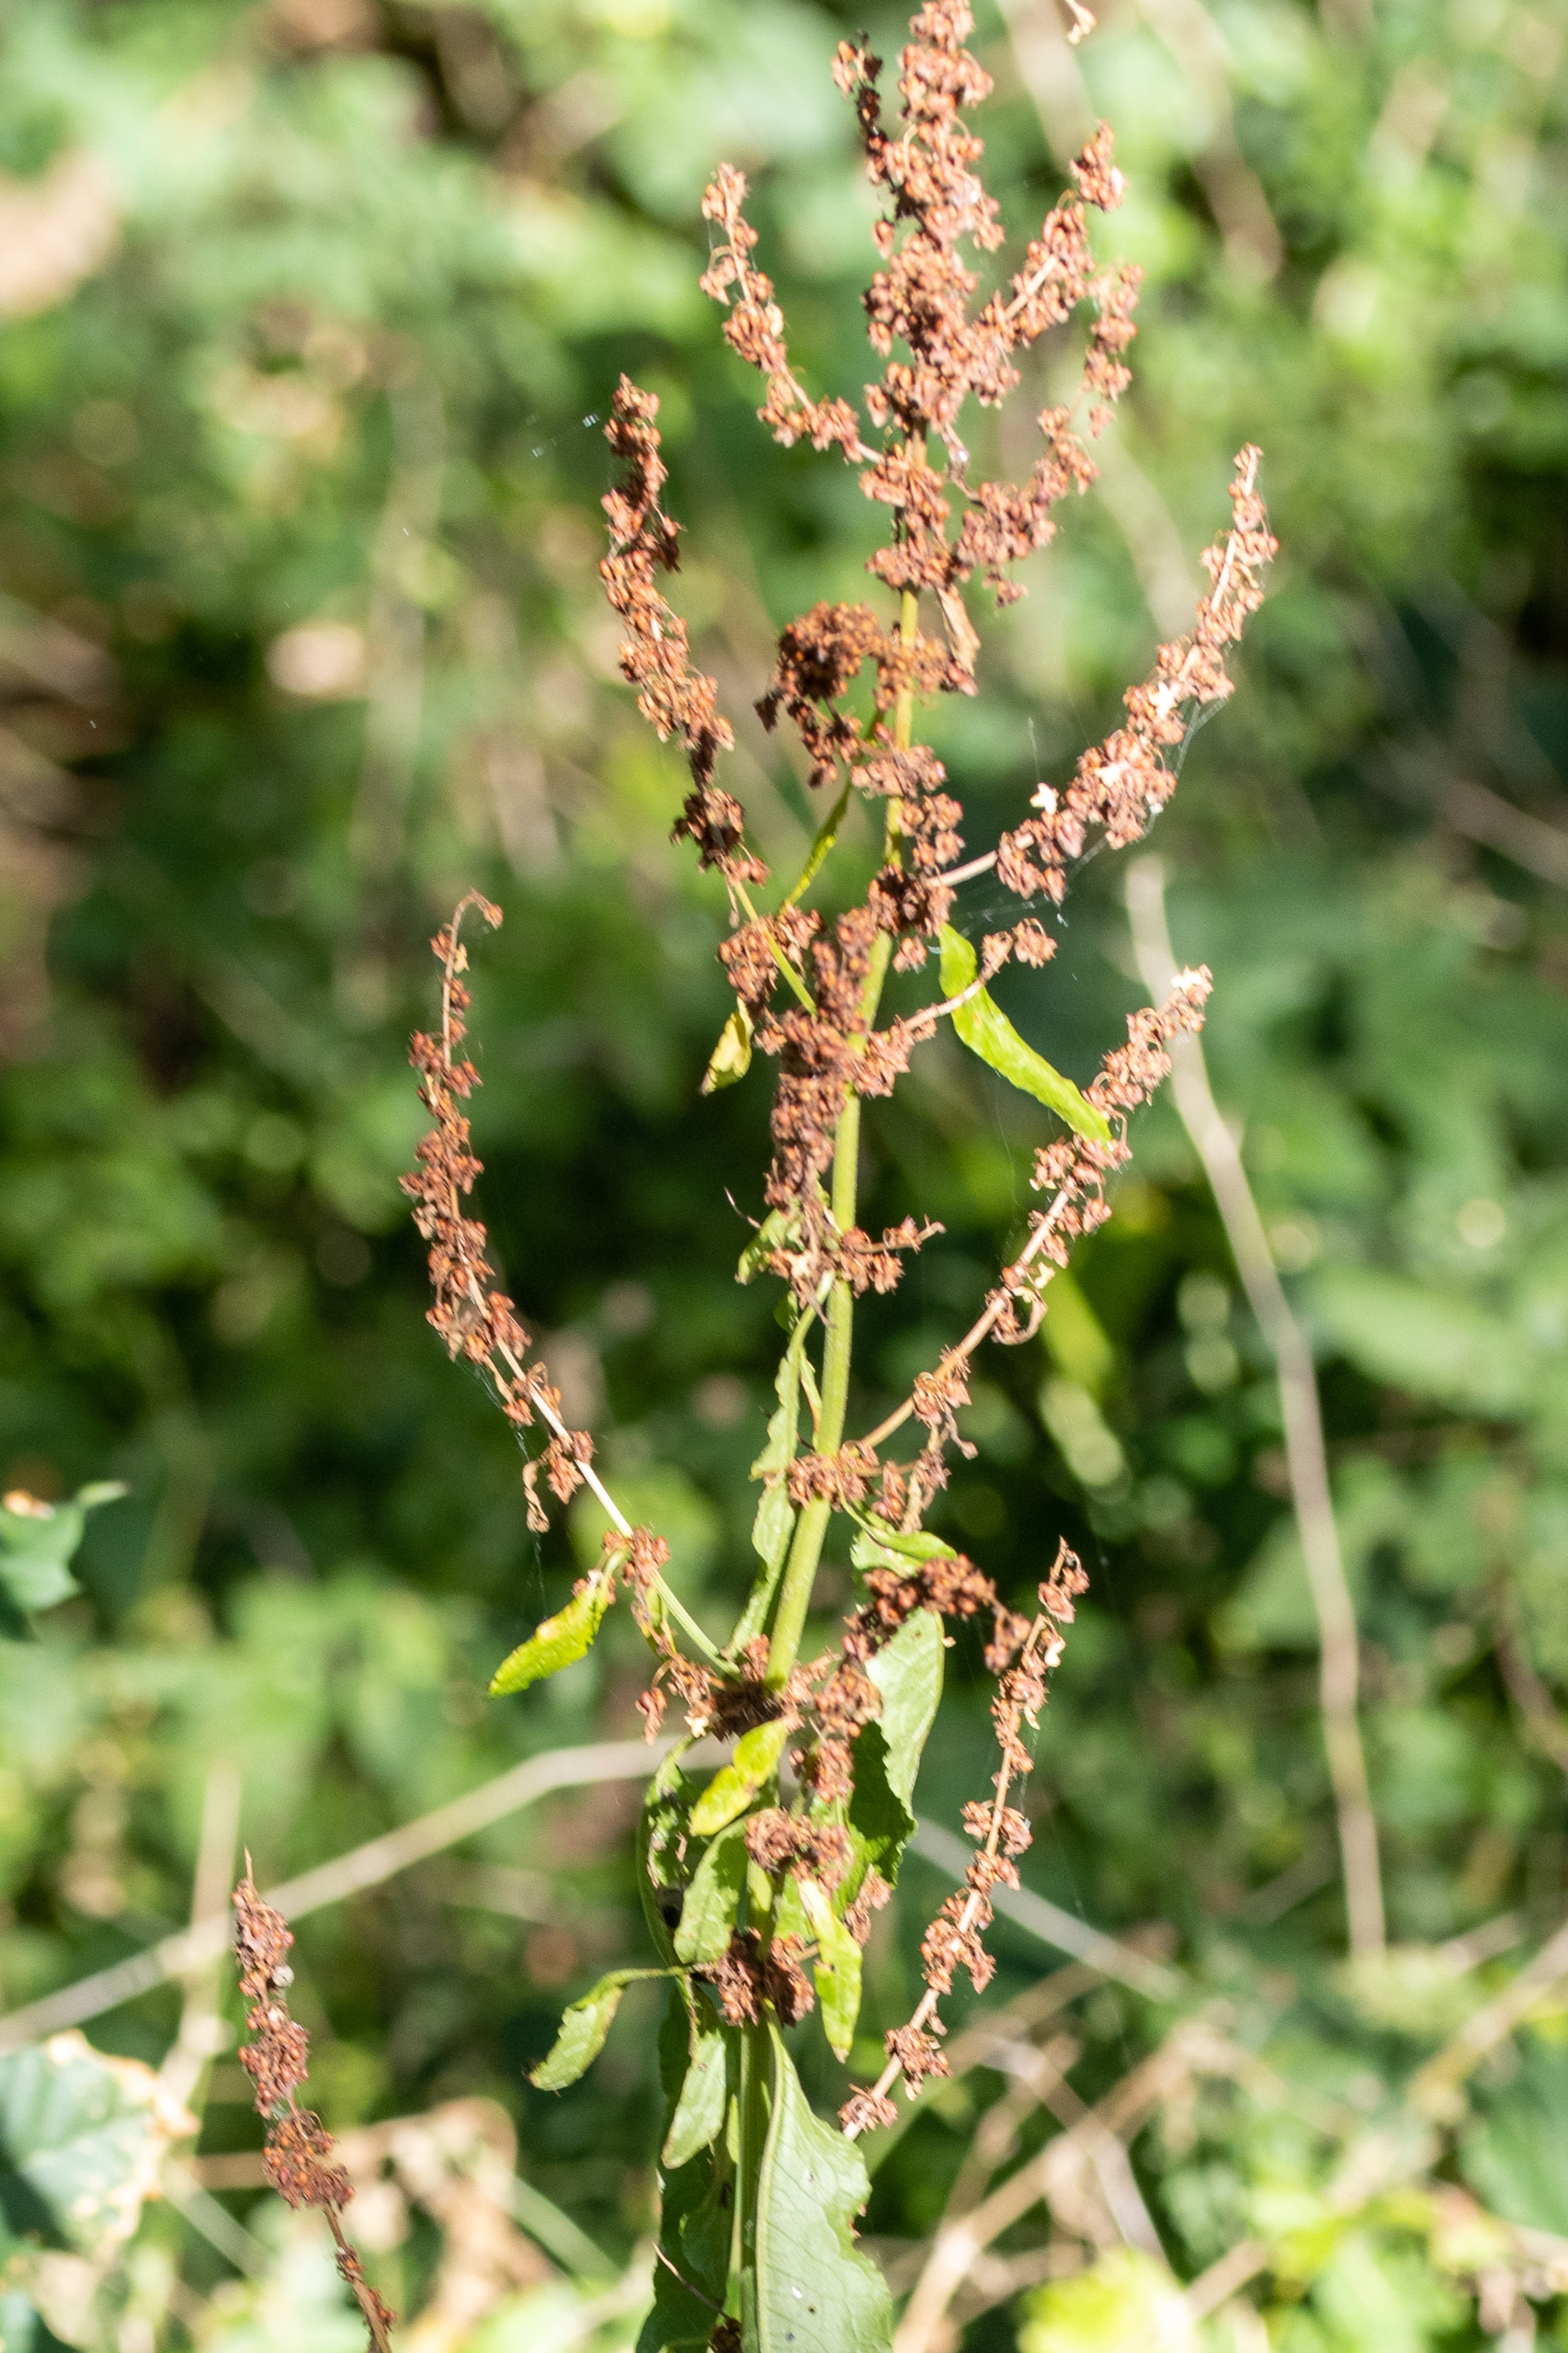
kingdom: Plantae
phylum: Tracheophyta
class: Magnoliopsida
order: Caryophyllales
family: Polygonaceae
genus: Rumex
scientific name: Rumex obtusifolius
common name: Butbladet skræppe
